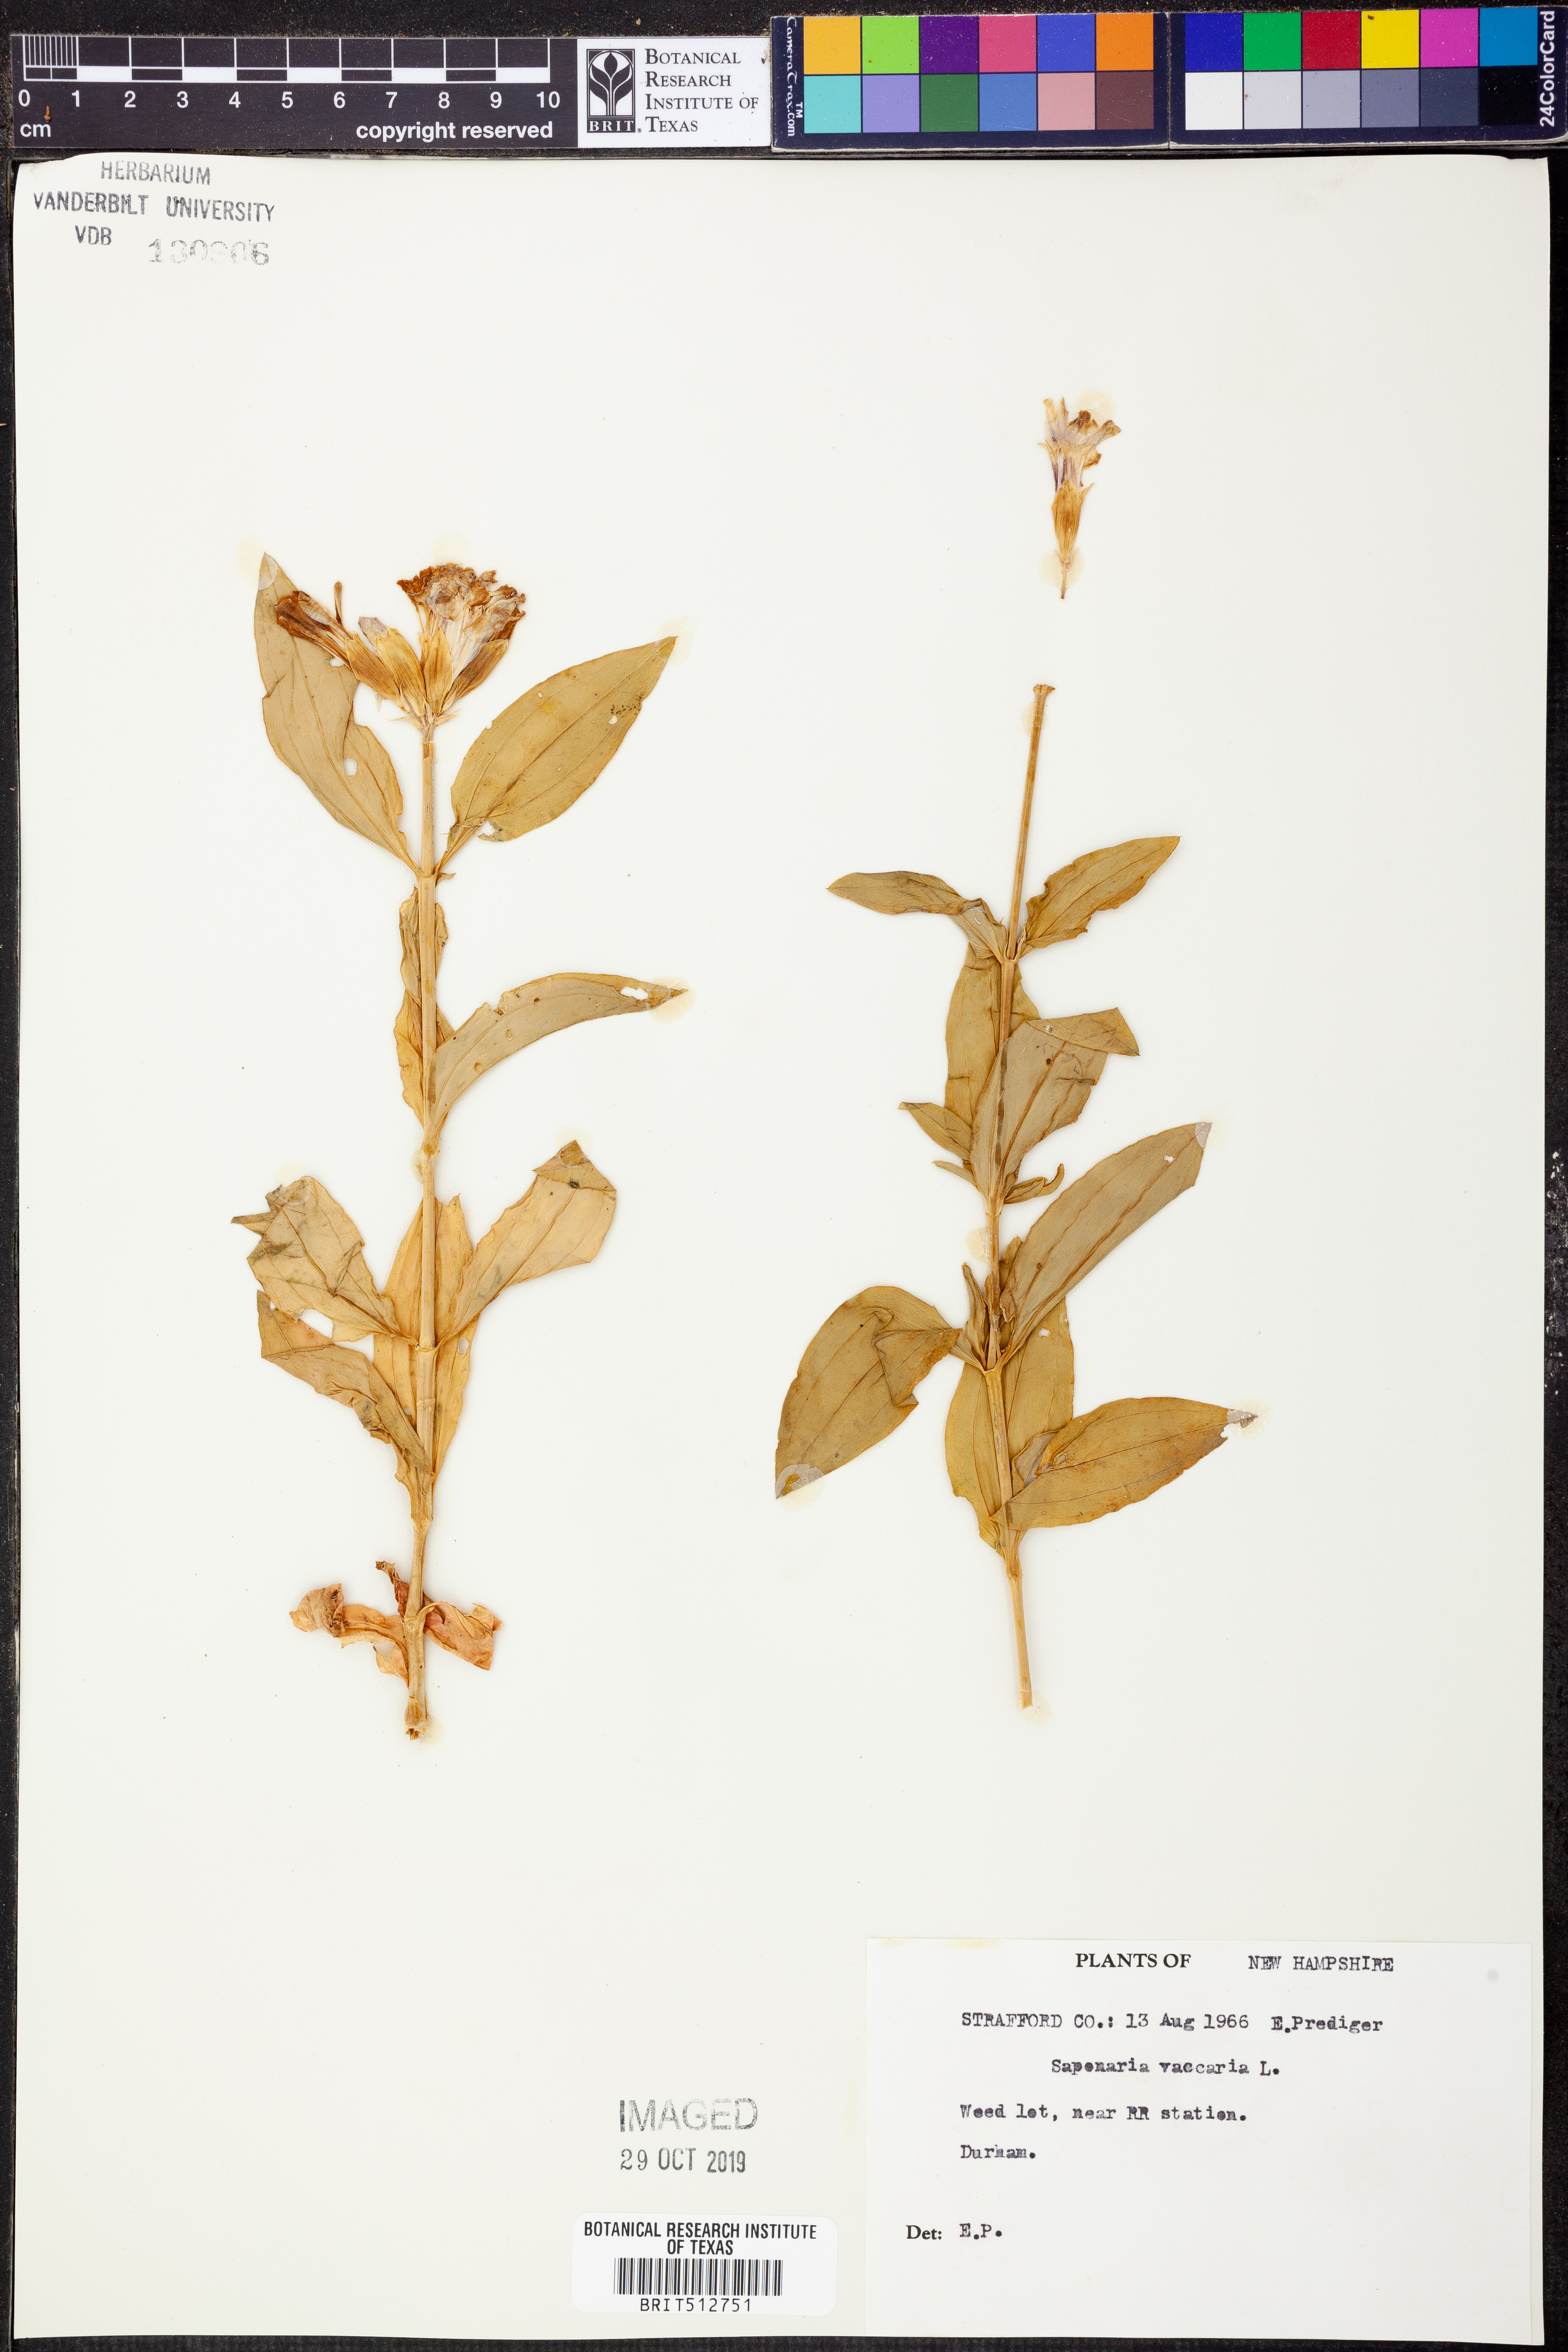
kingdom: Plantae
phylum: Tracheophyta
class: Magnoliopsida
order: Caryophyllales
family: Caryophyllaceae
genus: Gypsophila
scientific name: Gypsophila vaccaria
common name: Cow soapwort
